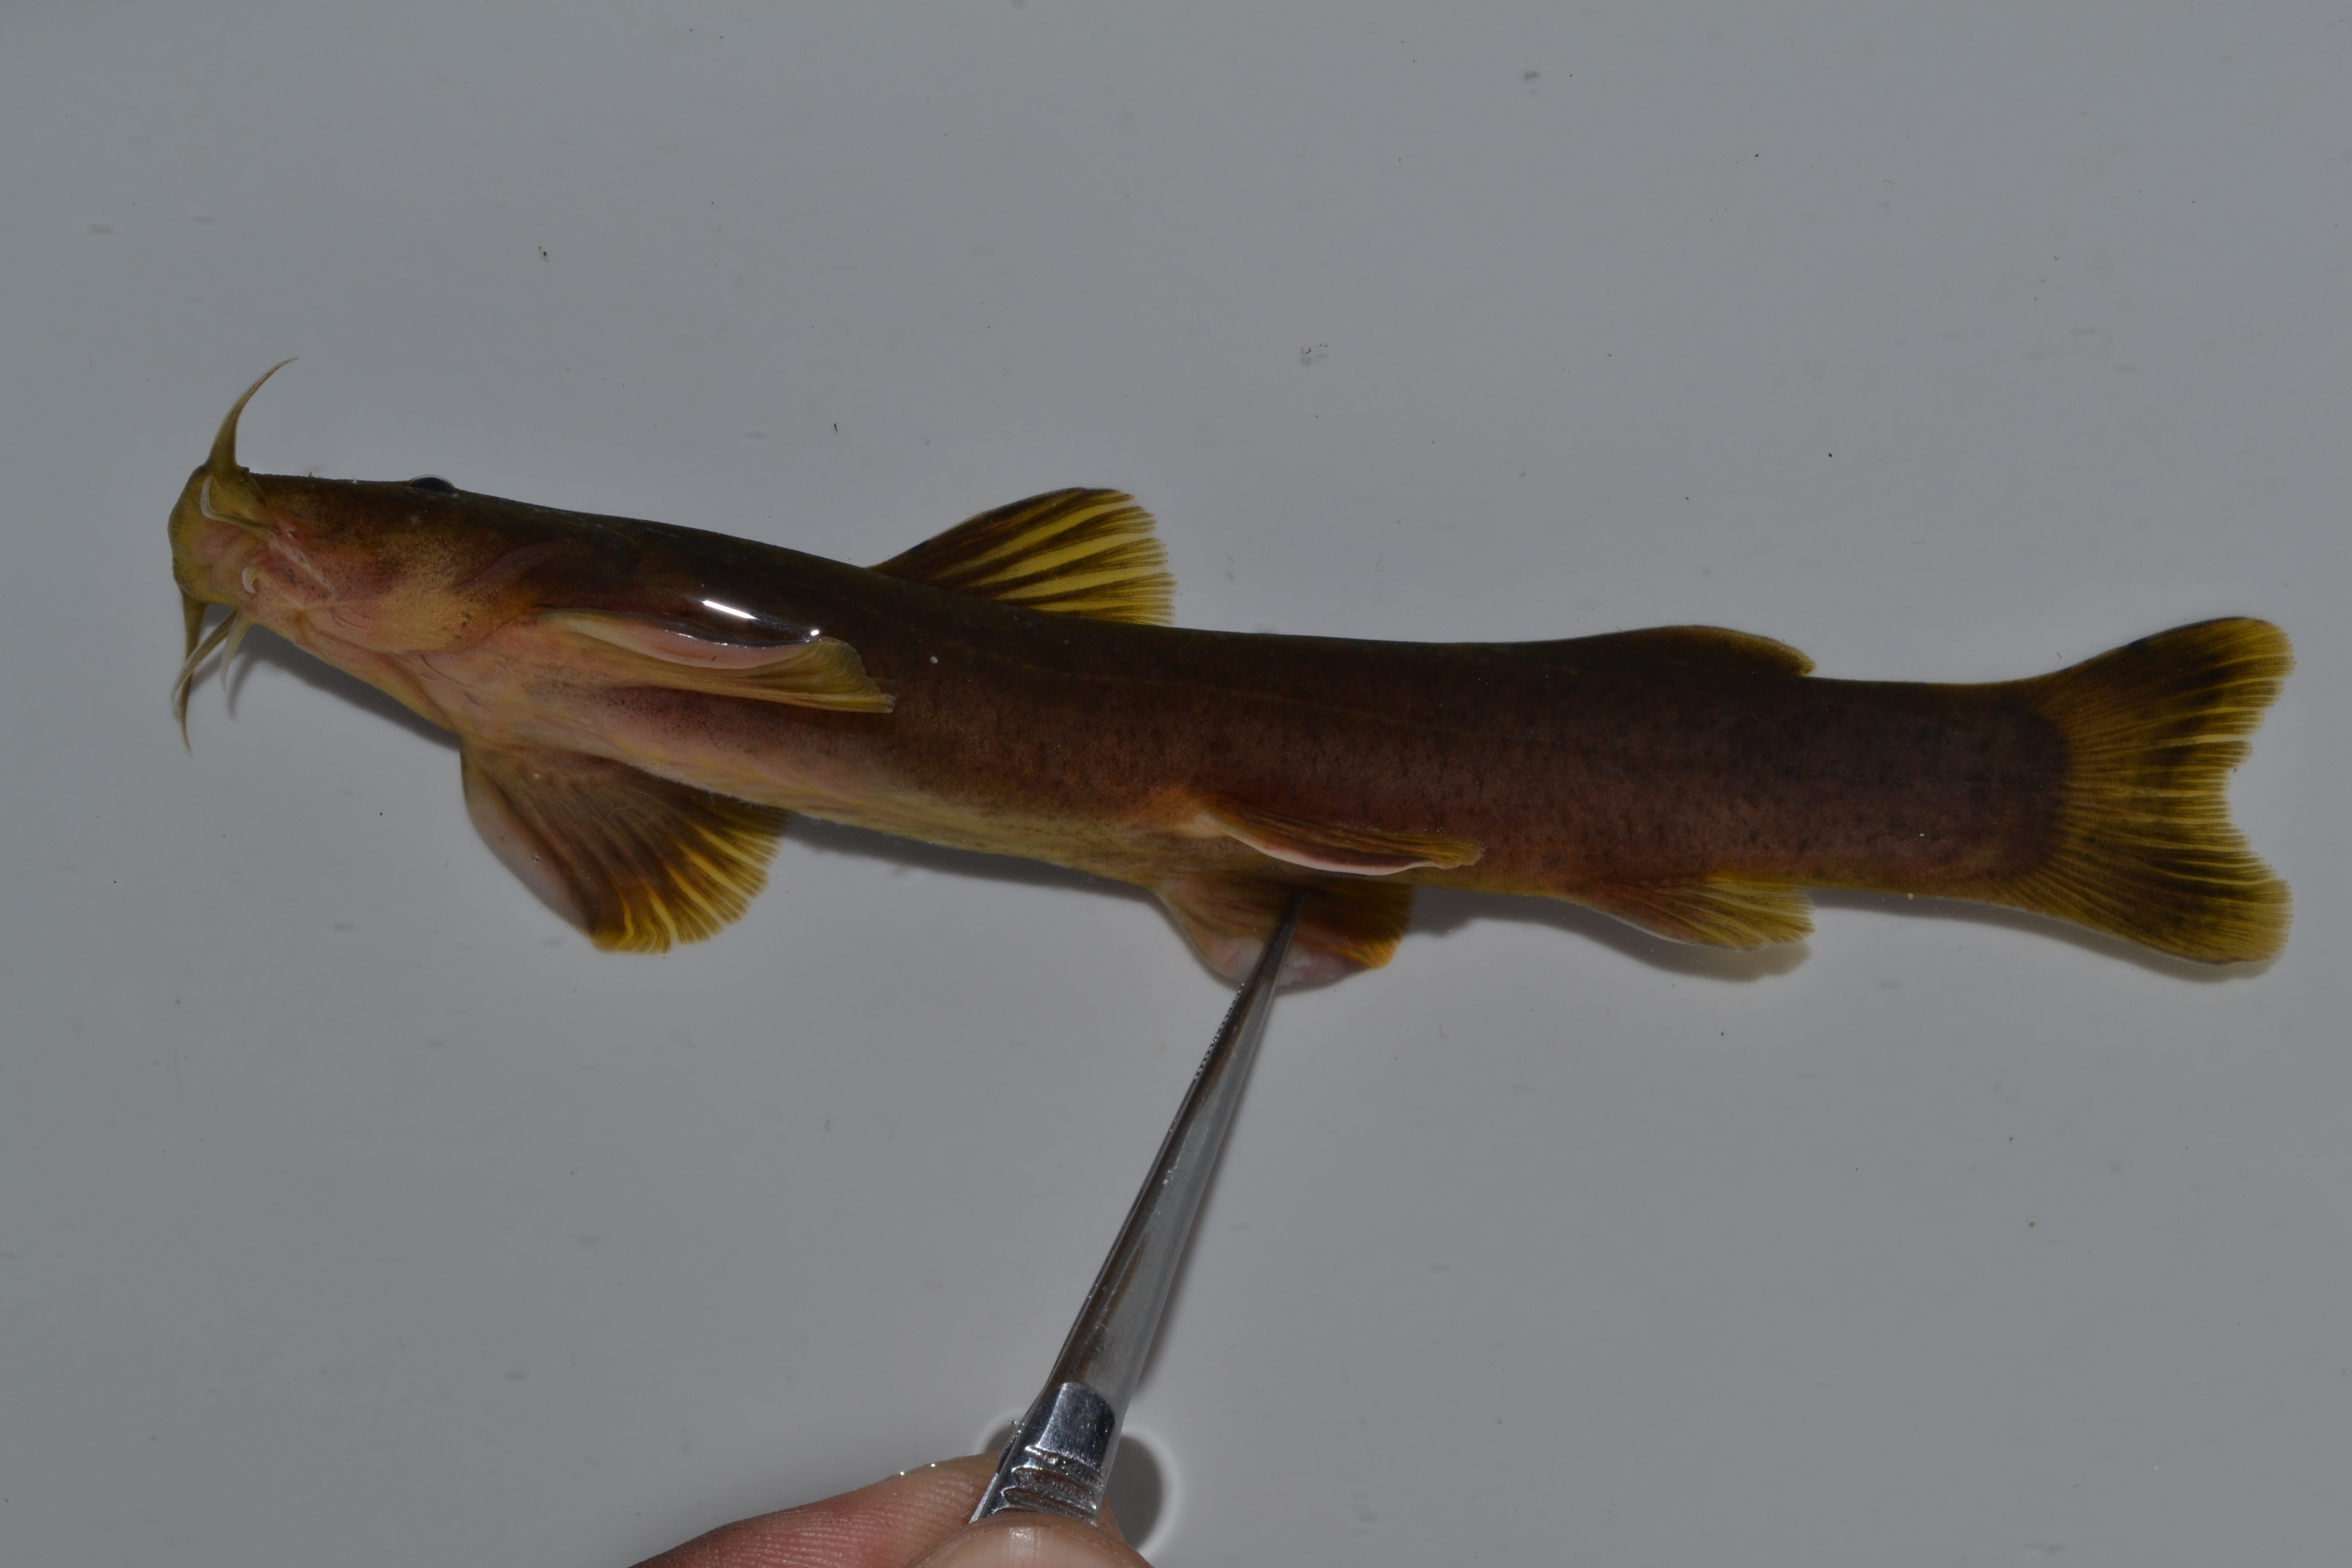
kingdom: Animalia
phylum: Chordata
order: Siluriformes
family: Amphiliidae
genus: Amphilius
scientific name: Amphilius uranoscopus
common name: Stargazer mountain catfish
